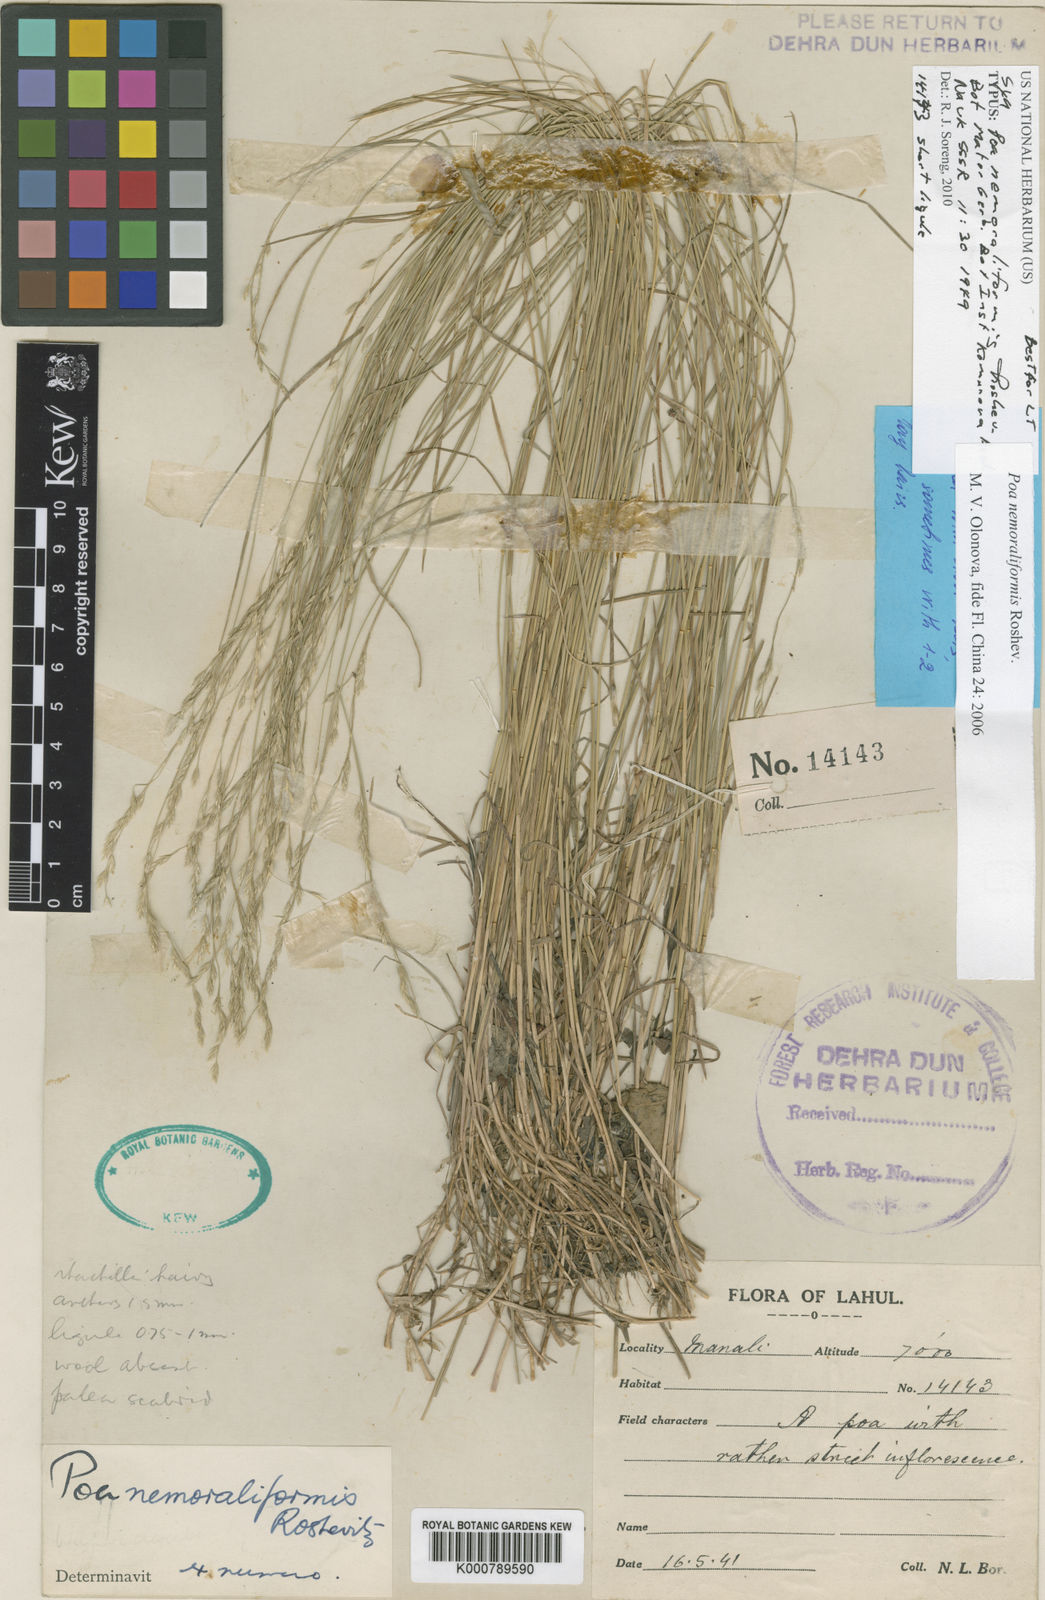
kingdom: Plantae
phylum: Tracheophyta
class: Liliopsida
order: Poales
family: Poaceae
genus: Poa
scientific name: Poa nemoraliformis
